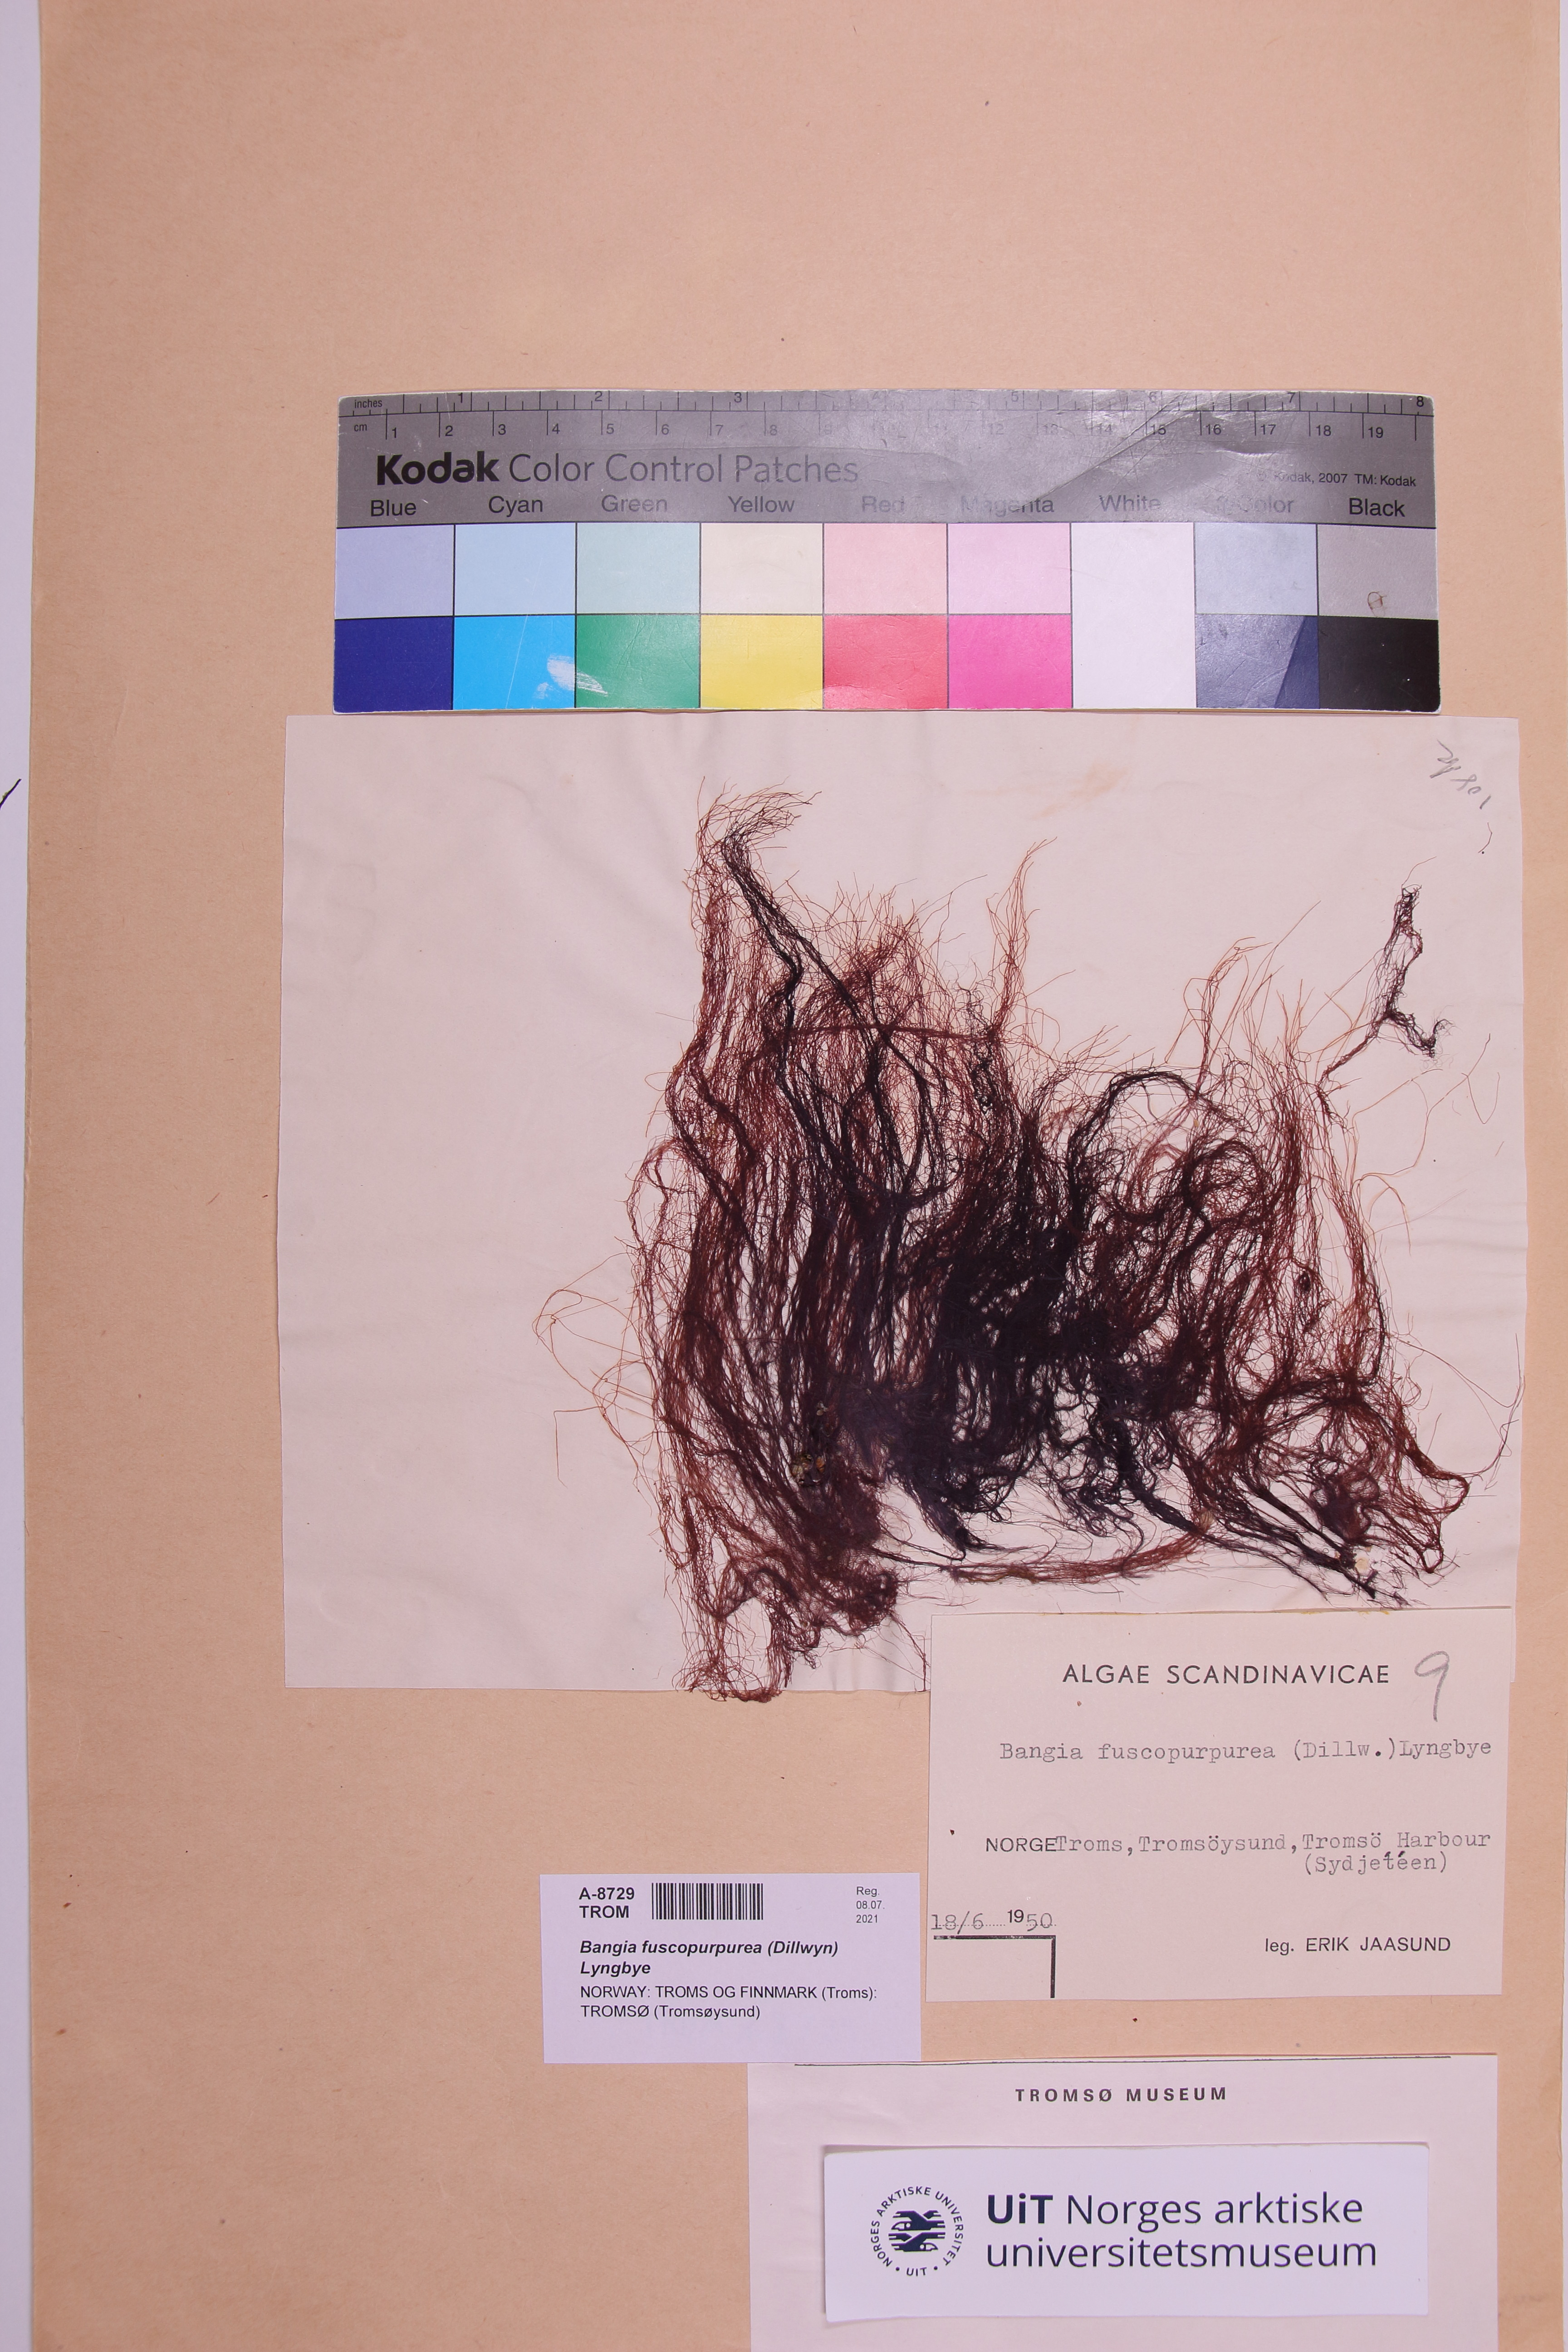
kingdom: Plantae
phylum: Rhodophyta
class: Bangiophyceae
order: Bangiales
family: Bangiaceae
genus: Bangia
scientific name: Bangia fuscopurpurea
